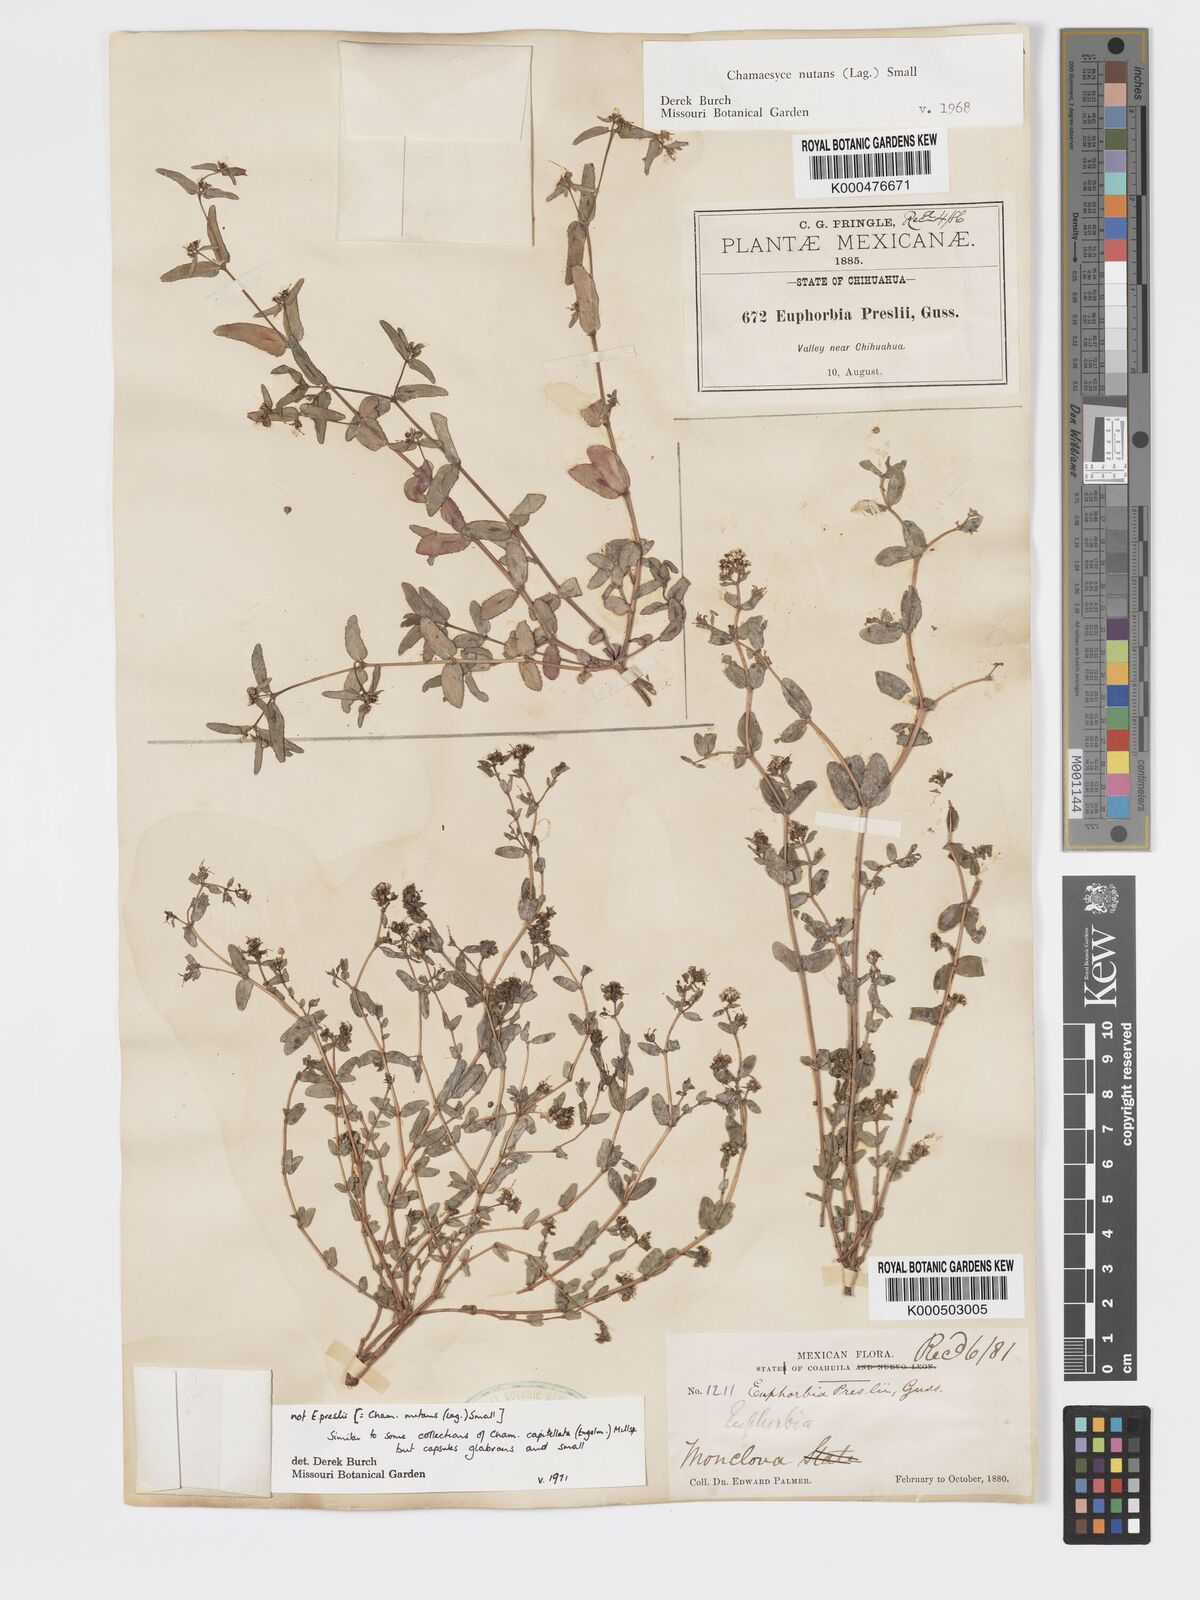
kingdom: Plantae
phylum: Tracheophyta
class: Magnoliopsida
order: Malpighiales
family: Euphorbiaceae
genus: Euphorbia
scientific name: Euphorbia nutans
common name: Eyebane
